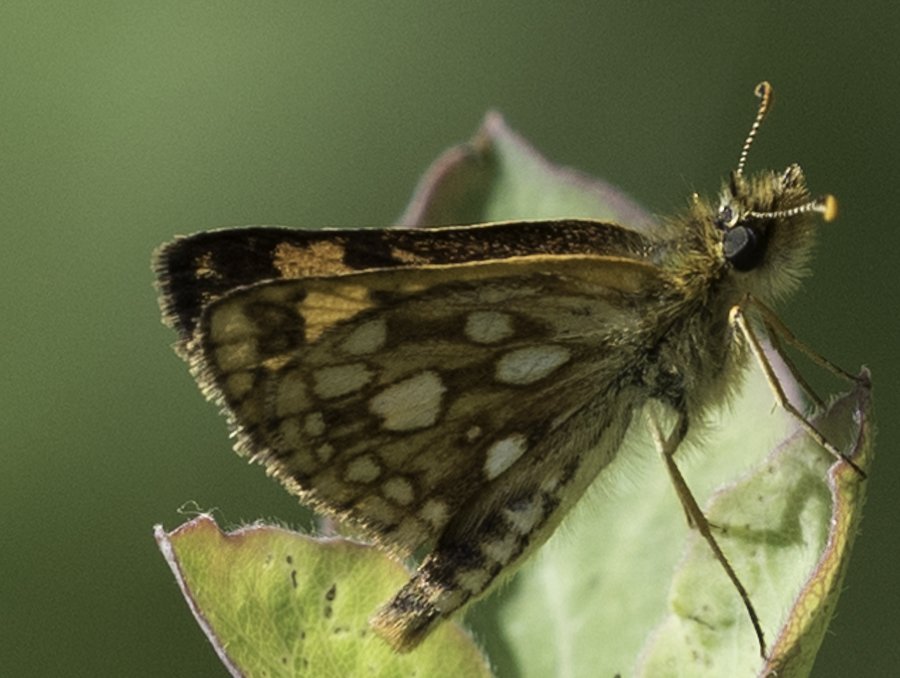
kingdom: Animalia
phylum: Arthropoda
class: Insecta
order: Lepidoptera
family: Hesperiidae
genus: Carterocephalus
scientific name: Carterocephalus palaemon
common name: Chequered Skipper
